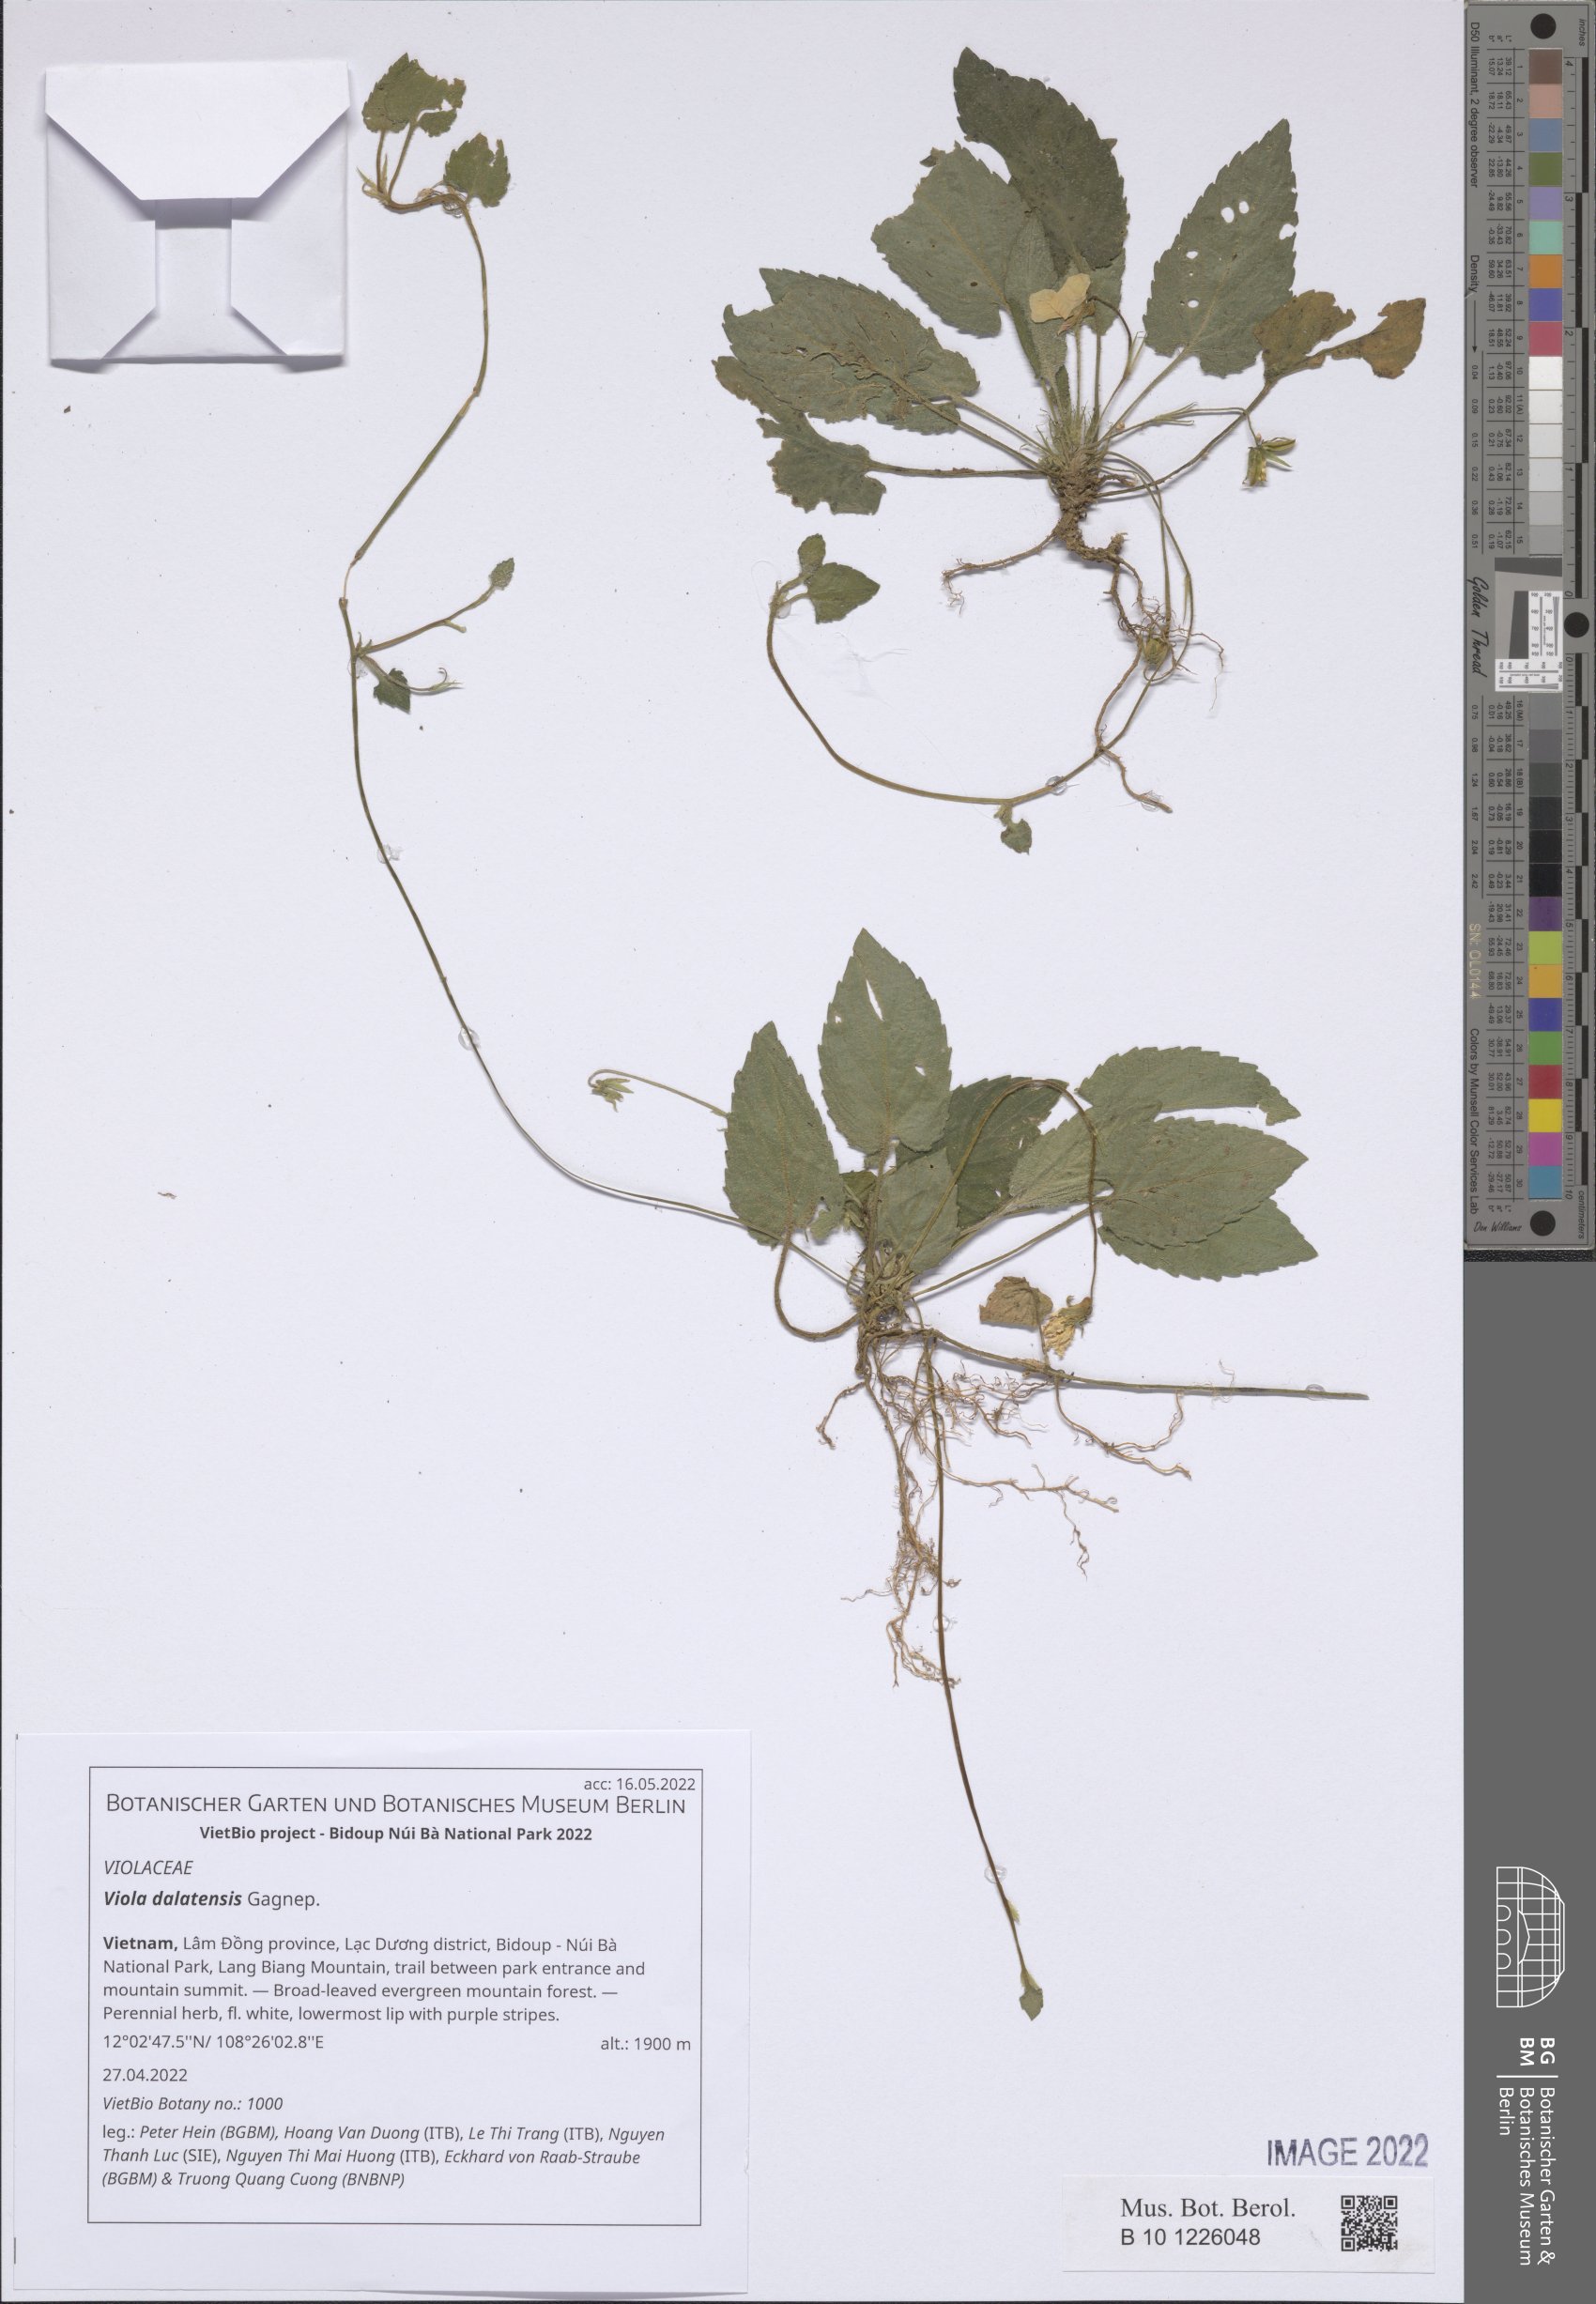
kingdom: Plantae
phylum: Tracheophyta
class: Magnoliopsida
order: Malpighiales
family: Violaceae
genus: Viola
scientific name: Viola hossei
